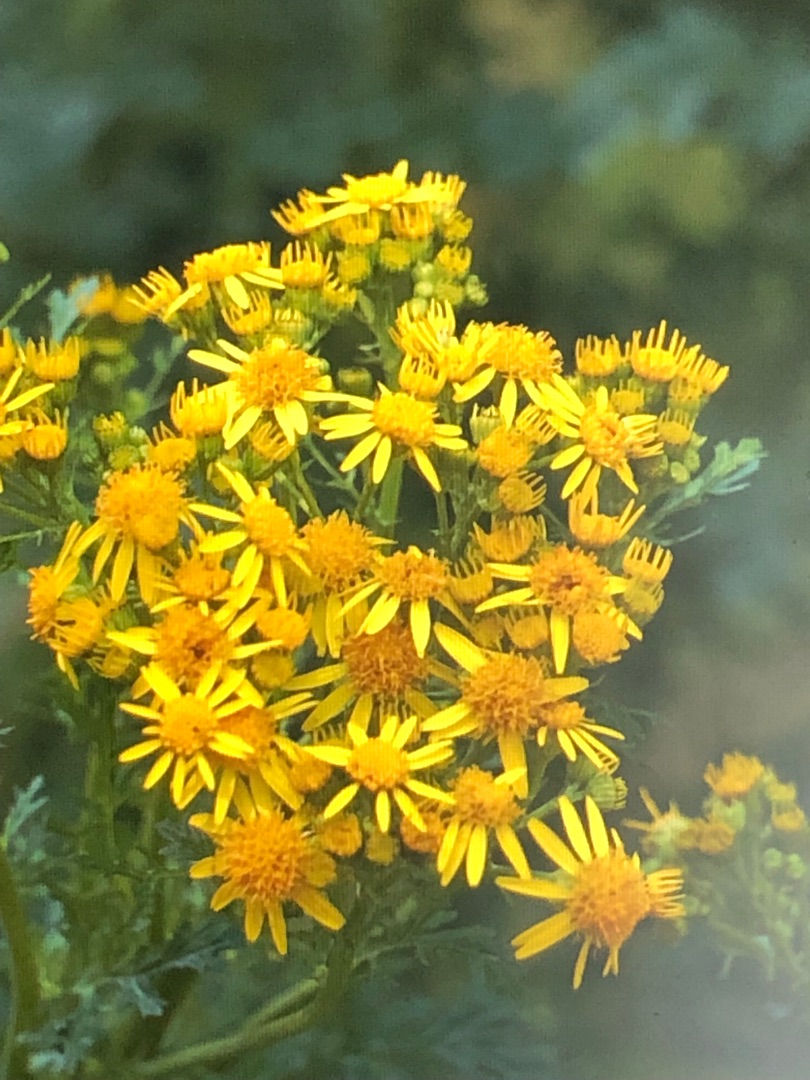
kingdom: Plantae
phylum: Tracheophyta
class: Magnoliopsida
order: Asterales
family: Asteraceae
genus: Jacobaea
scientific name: Jacobaea vulgaris
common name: Eng-brandbæger
